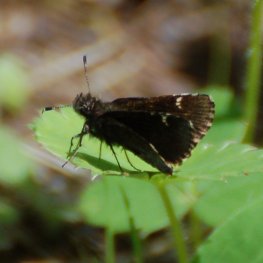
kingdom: Animalia
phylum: Arthropoda
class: Insecta
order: Lepidoptera
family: Hesperiidae
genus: Mastor
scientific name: Mastor vialis
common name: Common Roadside-Skipper
